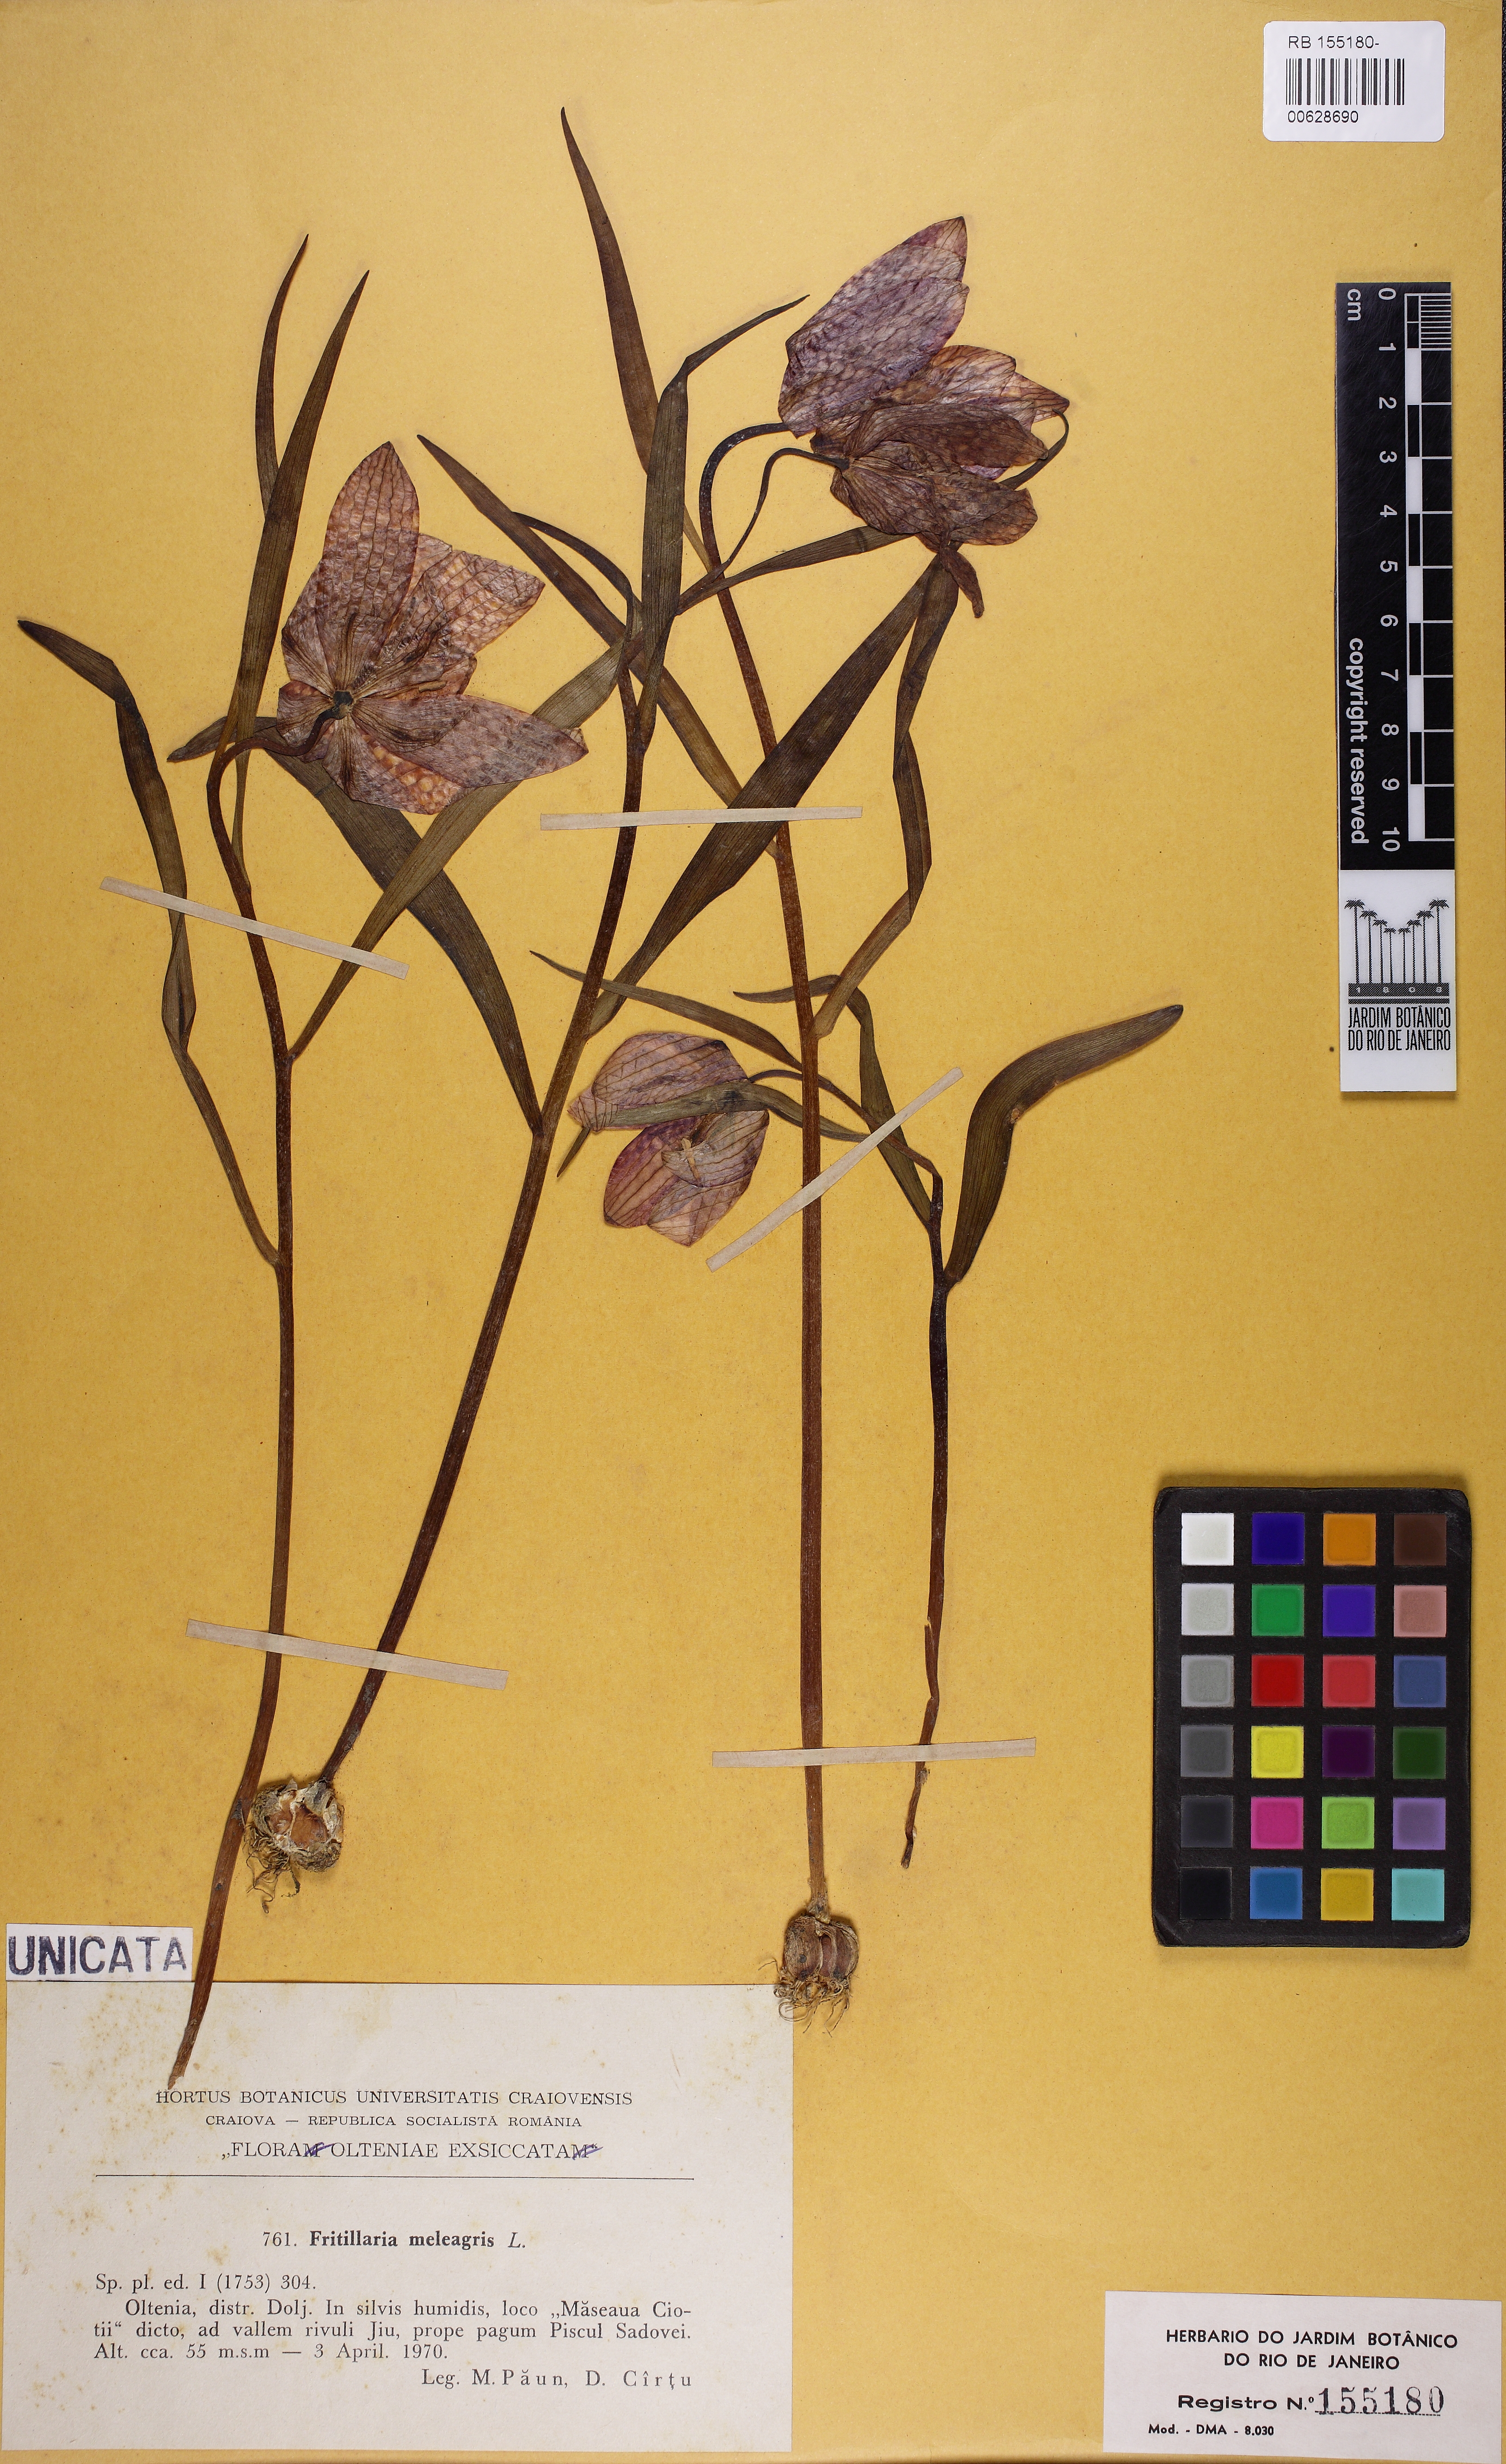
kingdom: Plantae
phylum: Tracheophyta
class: Liliopsida
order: Liliales
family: Liliaceae
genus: Fritillaria
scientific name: Fritillaria meleagris
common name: Fritillary
